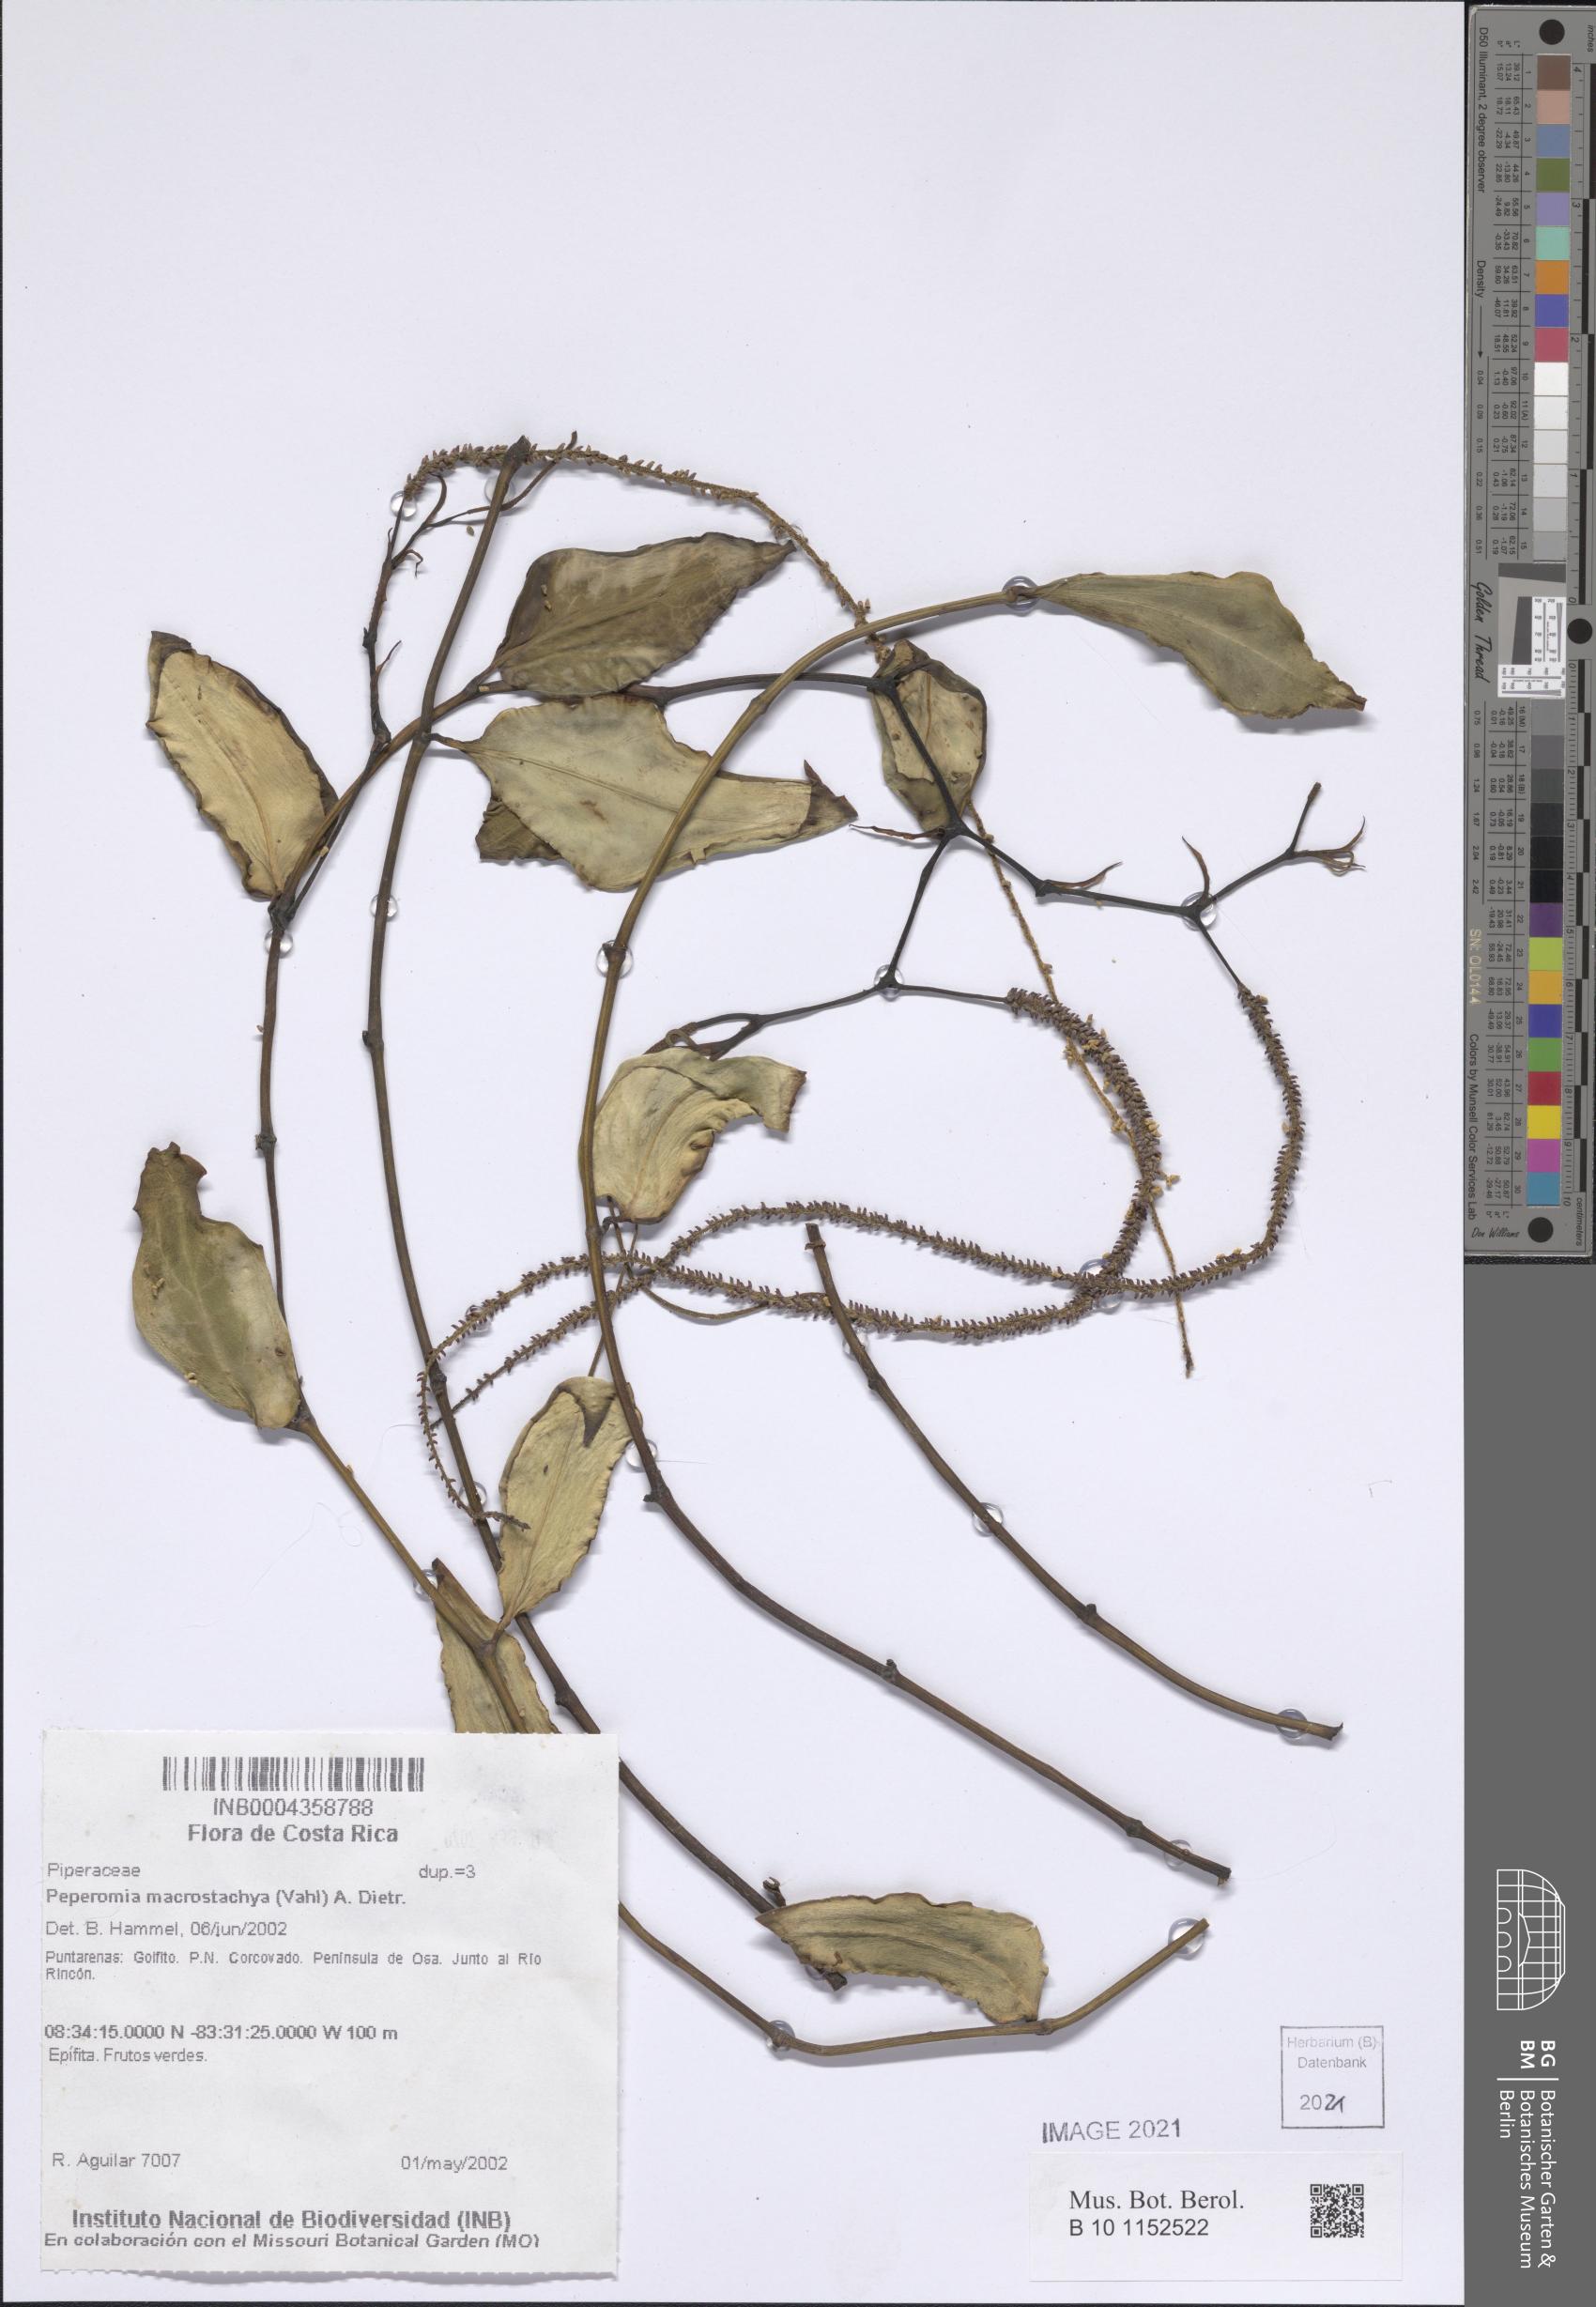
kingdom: Plantae
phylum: Tracheophyta
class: Magnoliopsida
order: Piperales
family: Piperaceae
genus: Peperomia
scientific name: Peperomia macrostachyos
